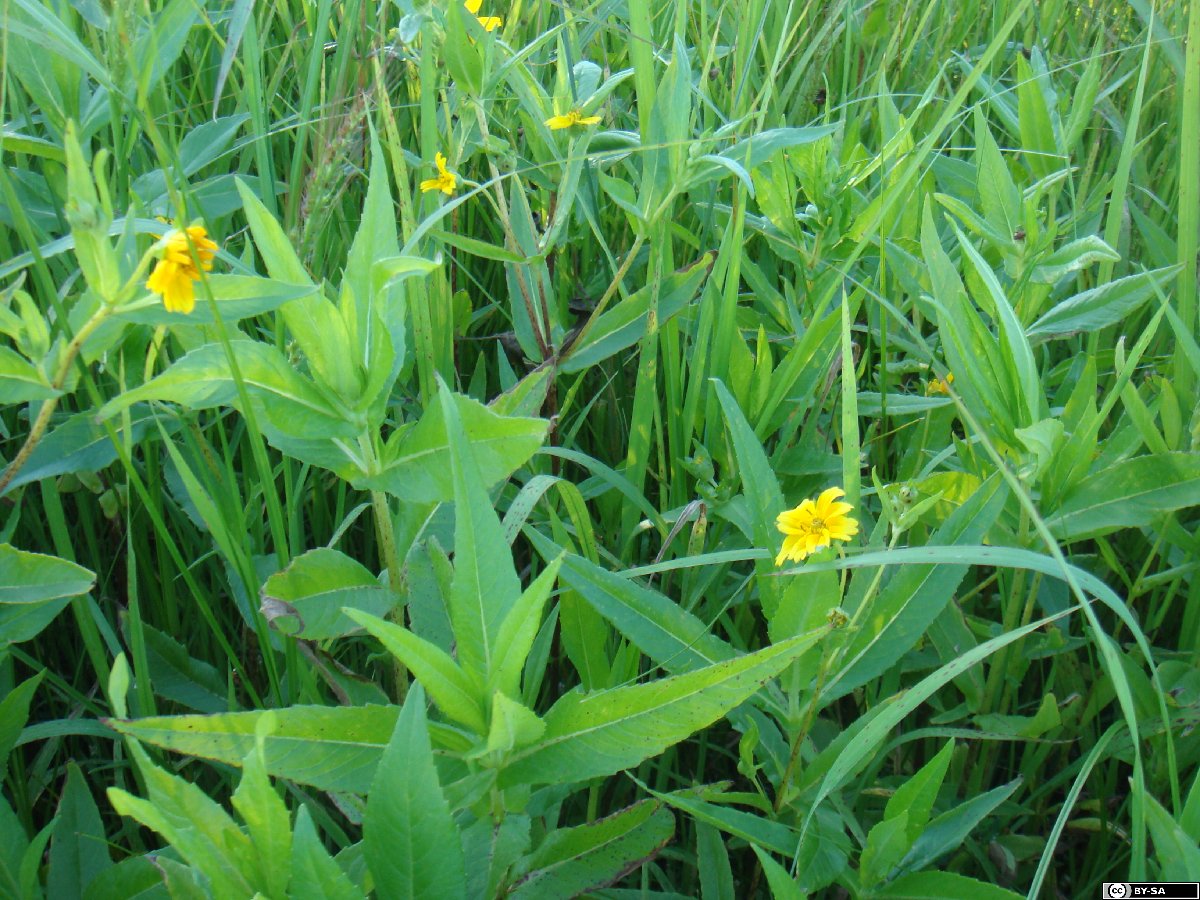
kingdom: Plantae
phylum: Tracheophyta
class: Magnoliopsida
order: Asterales
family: Asteraceae
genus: Guizotia
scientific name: Guizotia abyssinica
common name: Niger
